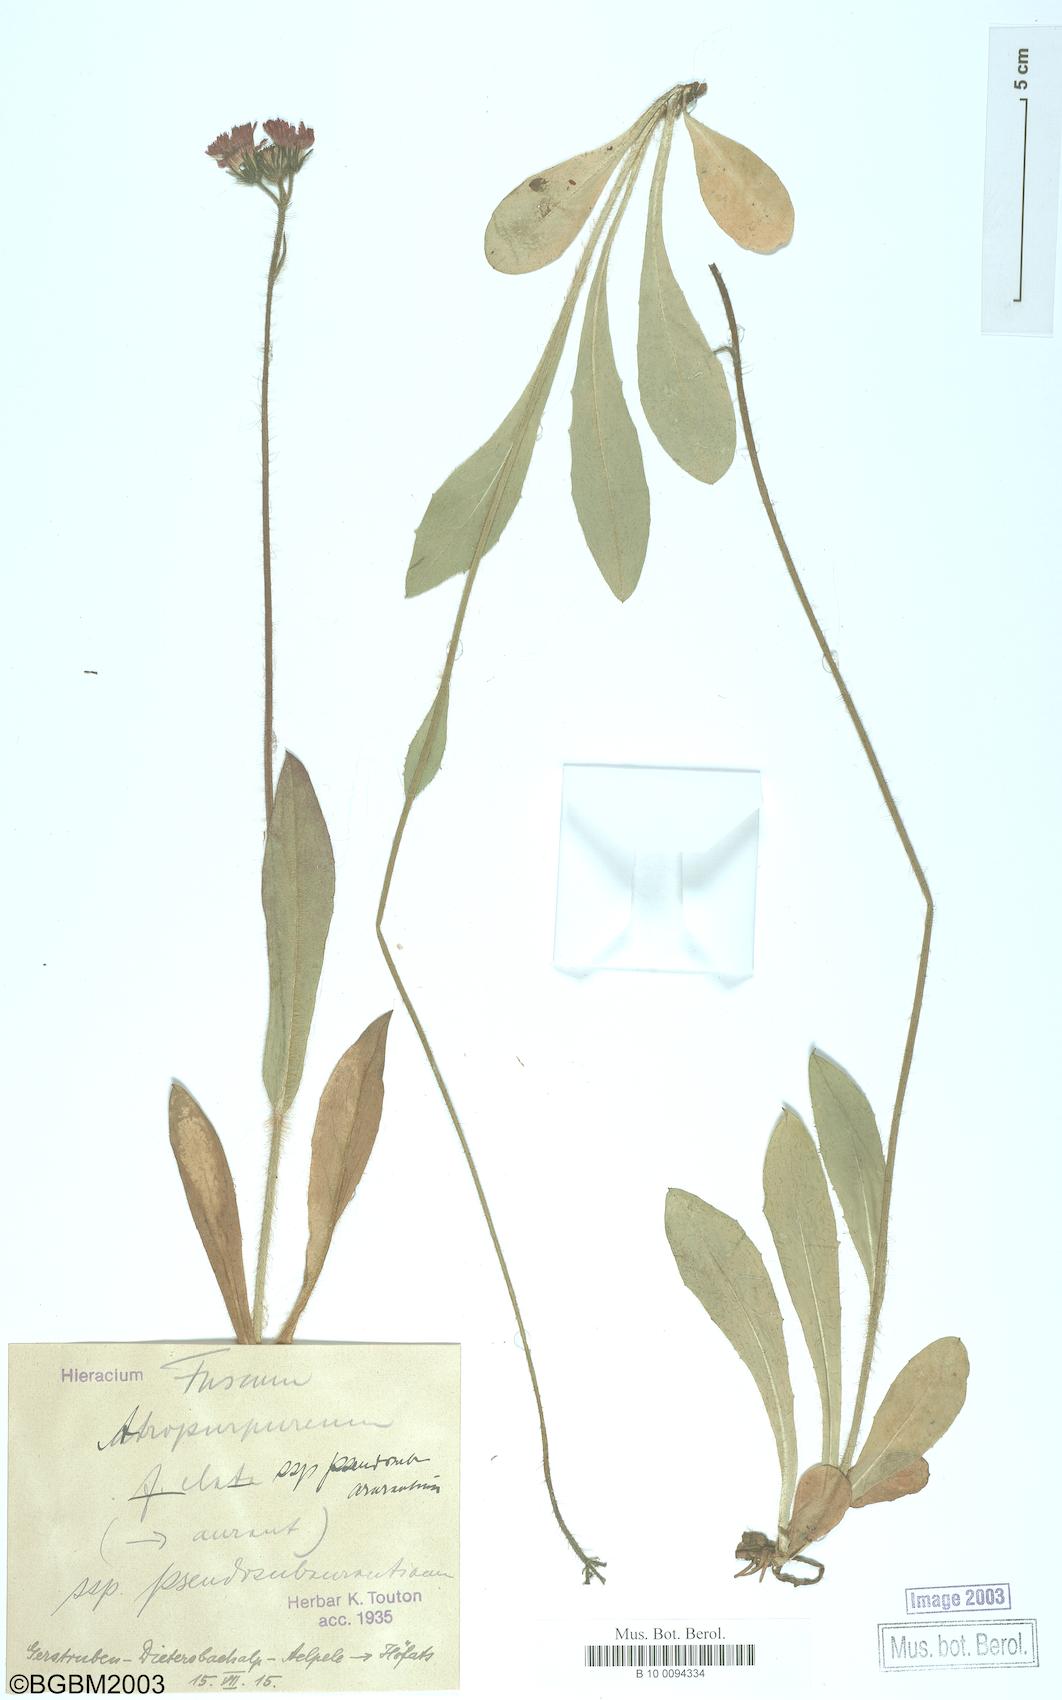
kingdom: Plantae
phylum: Tracheophyta
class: Magnoliopsida
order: Asterales
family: Asteraceae
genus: Hieracium
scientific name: Hieracium fuscum
